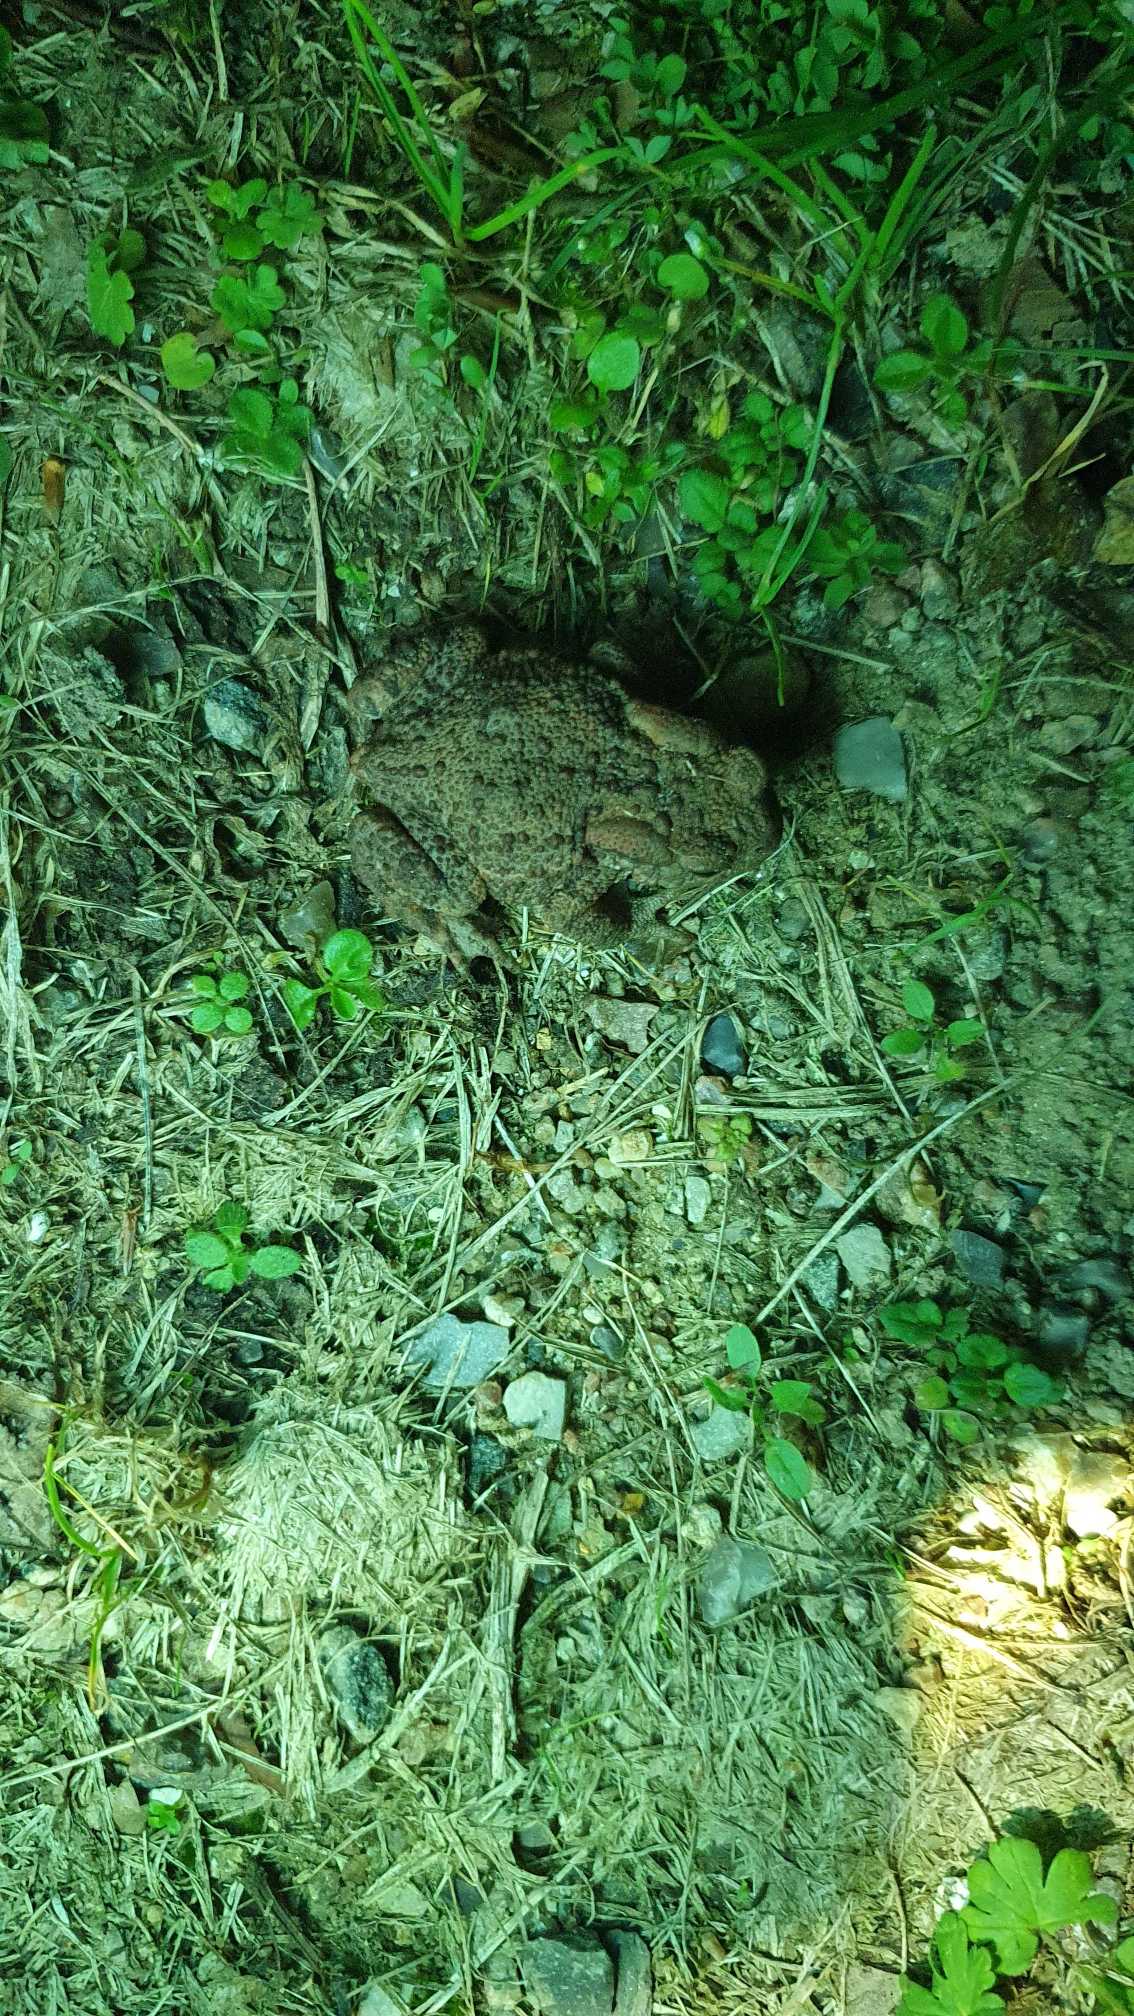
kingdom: Animalia
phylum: Chordata
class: Amphibia
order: Anura
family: Bufonidae
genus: Bufo
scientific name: Bufo bufo
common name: Skrubtudse
